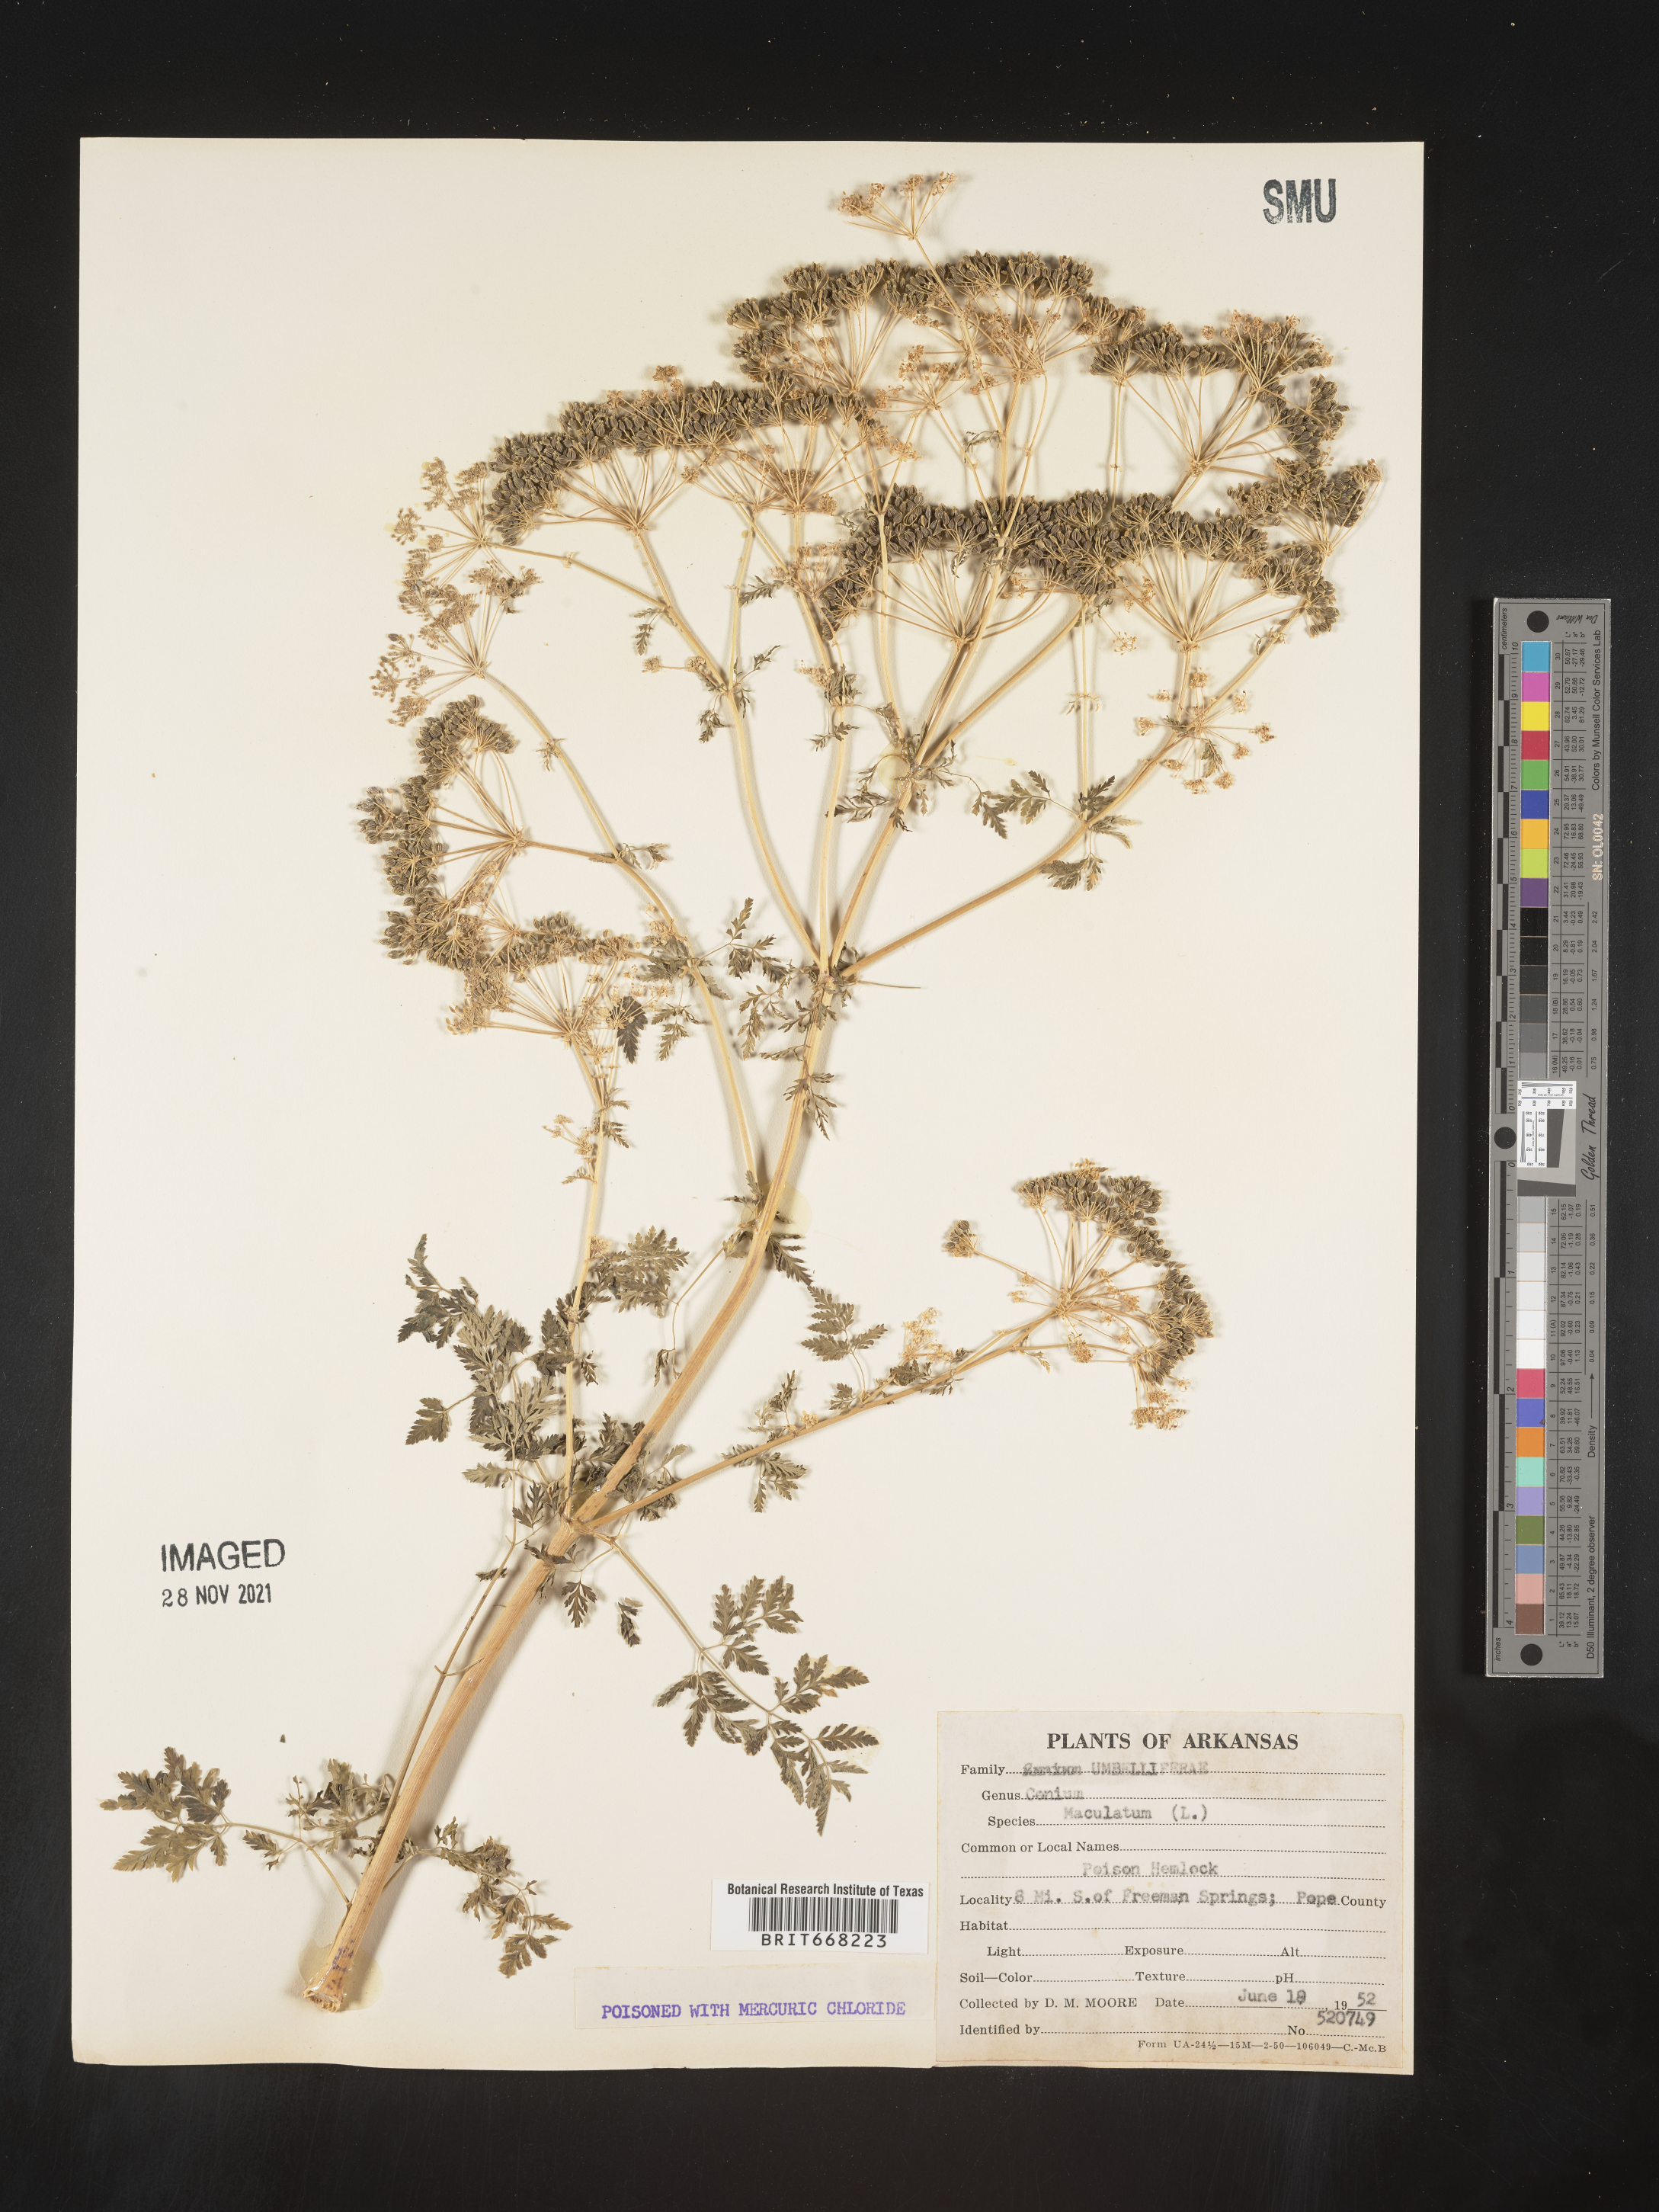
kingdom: Plantae
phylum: Tracheophyta
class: Magnoliopsida
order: Apiales
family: Apiaceae
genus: Conium
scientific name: Conium maculatum
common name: Hemlock
